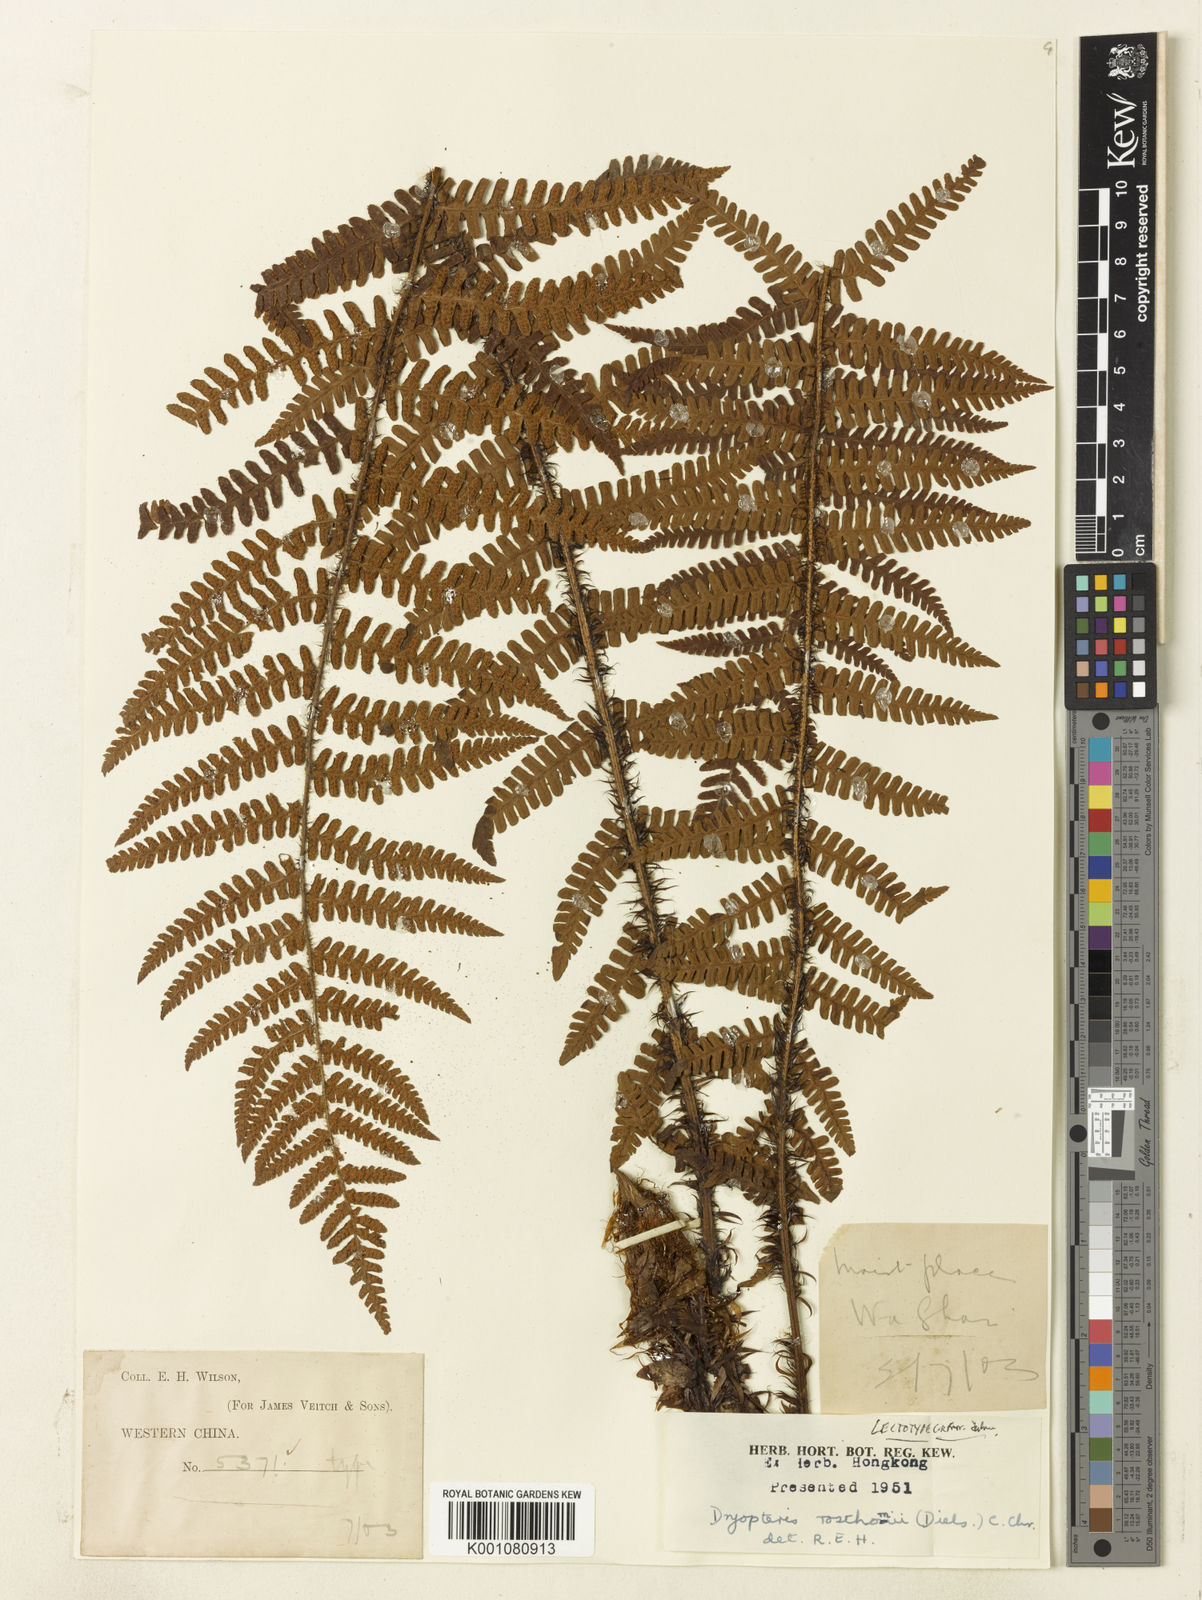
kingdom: Plantae
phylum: Tracheophyta
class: Polypodiopsida
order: Polypodiales
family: Dryopteridaceae
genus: Dryopteris
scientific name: Dryopteris rosthornii
